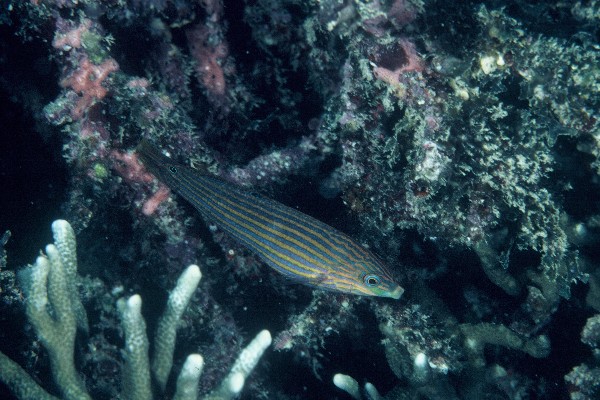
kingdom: Animalia
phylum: Chordata
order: Perciformes
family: Labridae
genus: Halichoeres
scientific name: Halichoeres melanurus
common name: Hoeven's wrasse
